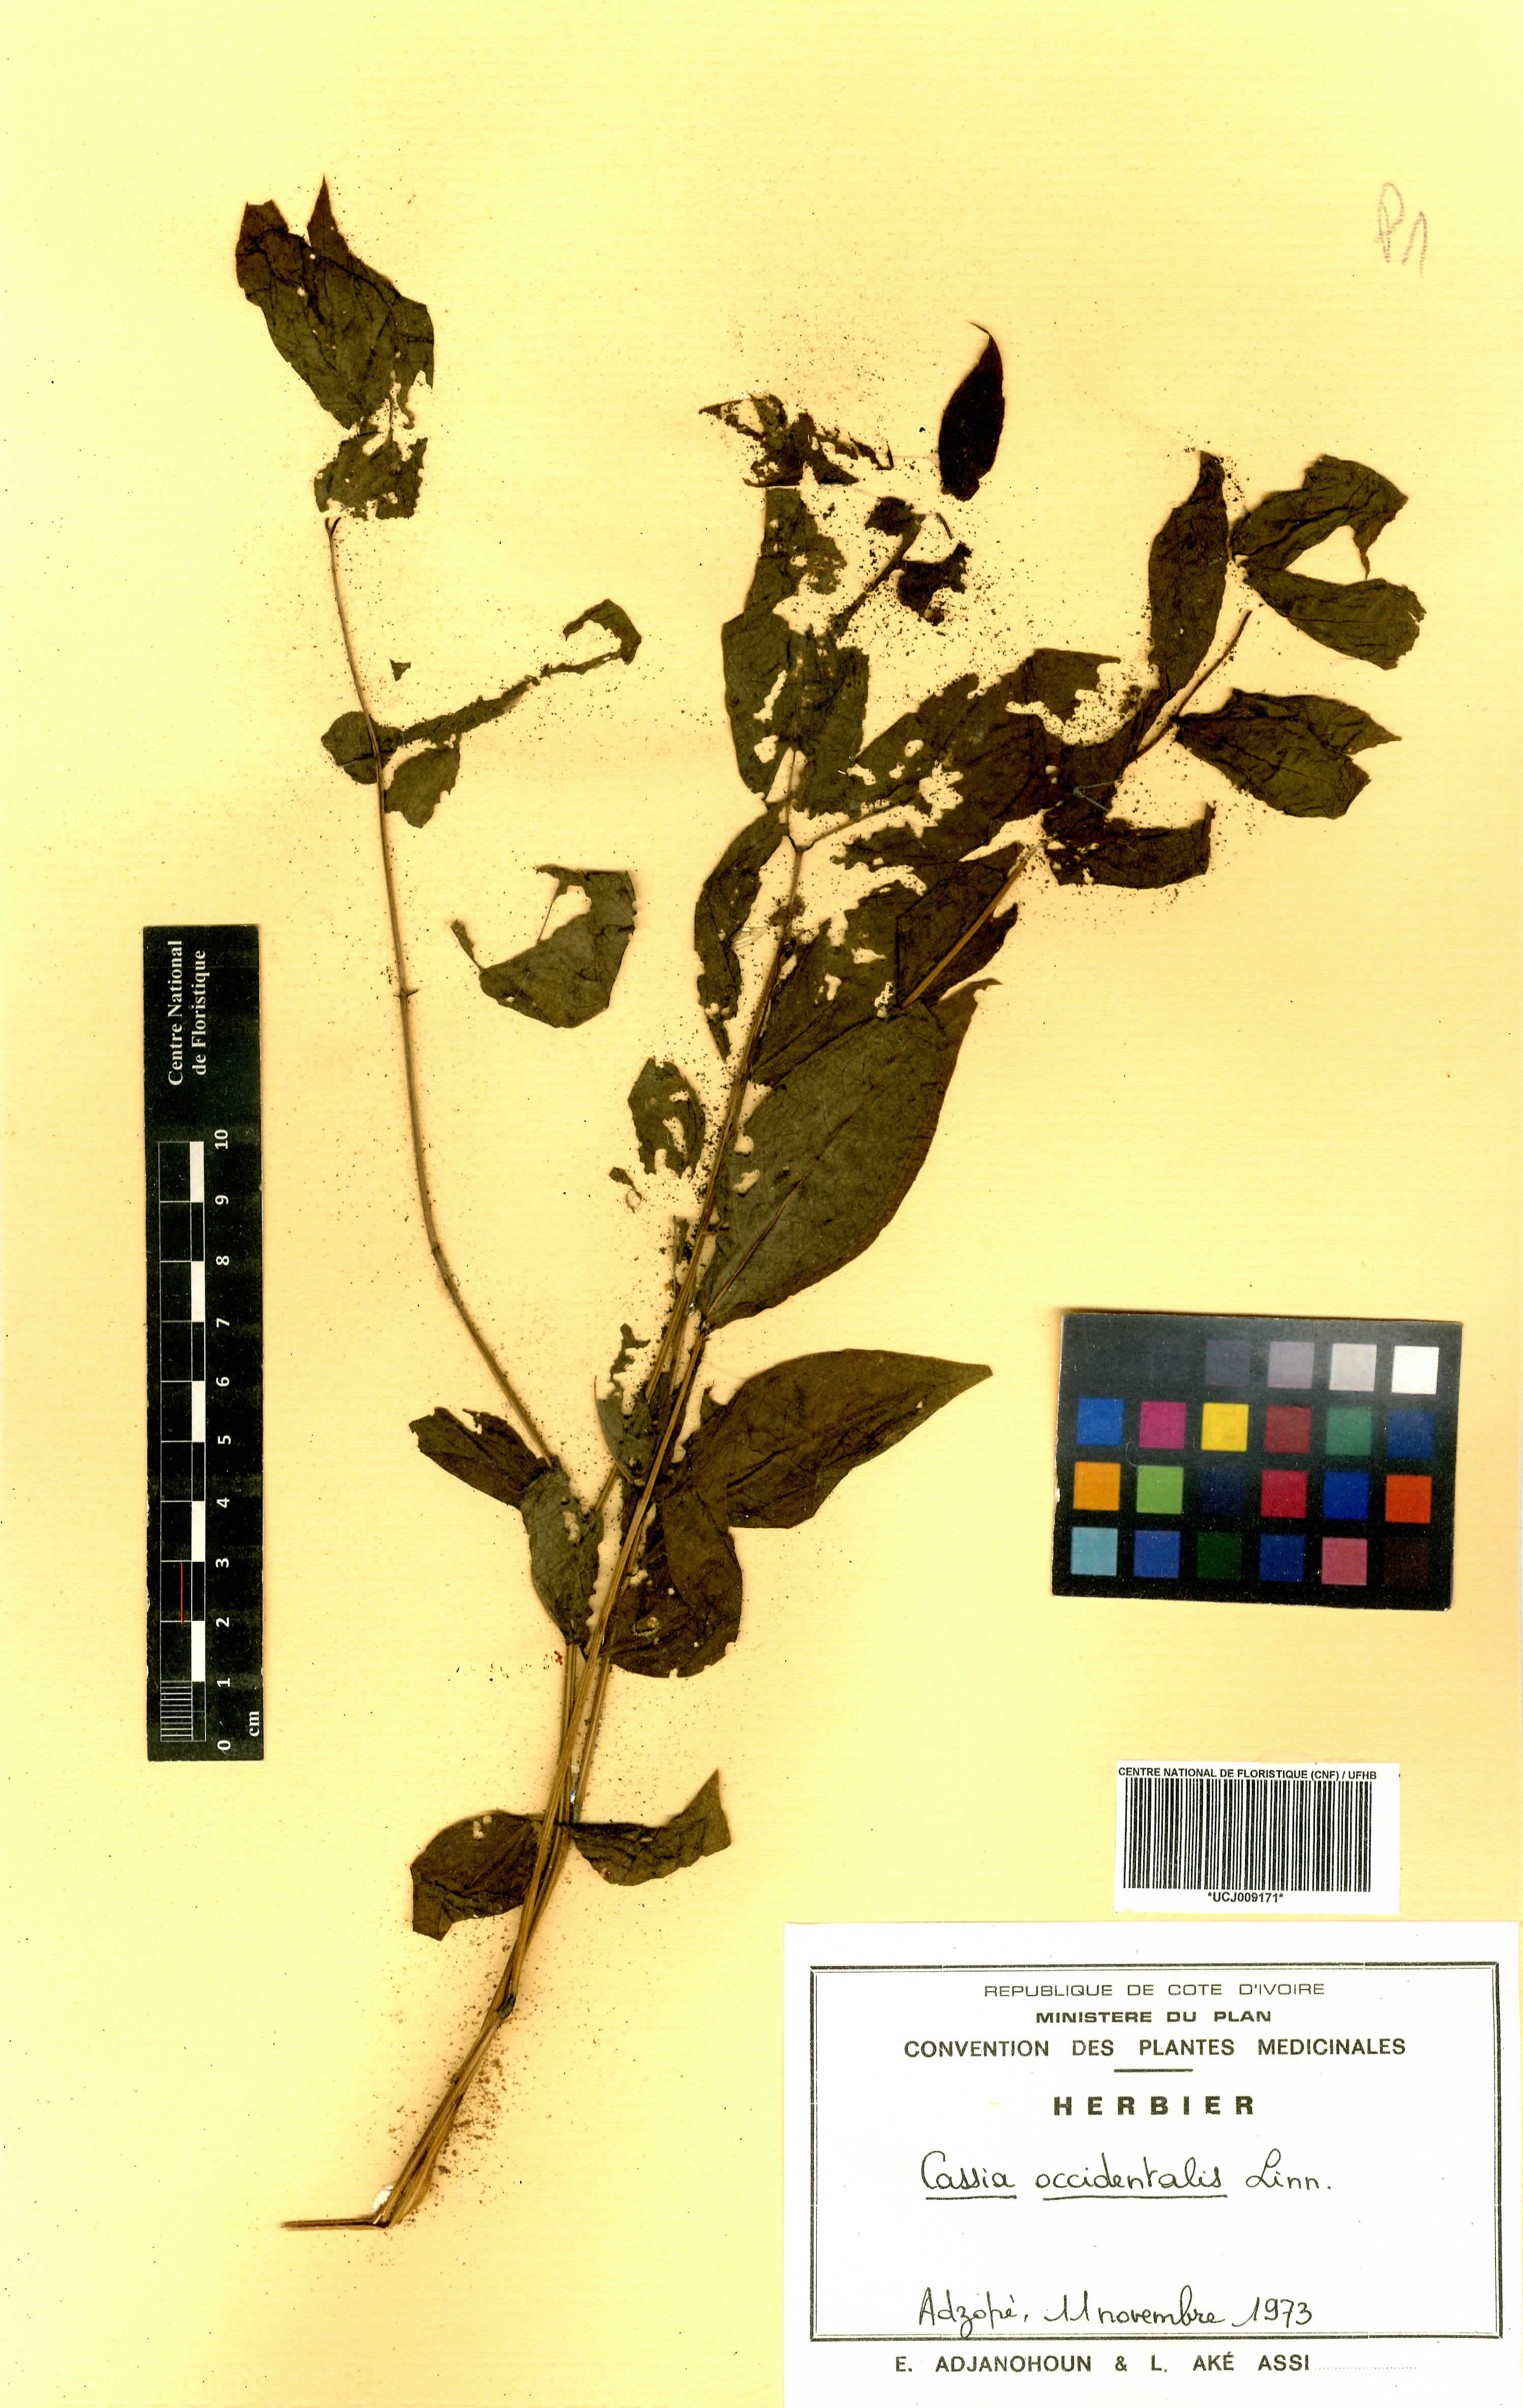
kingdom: Plantae
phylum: Tracheophyta
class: Magnoliopsida
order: Fabales
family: Fabaceae
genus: Senna
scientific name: Senna occidentalis
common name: Septicweed
